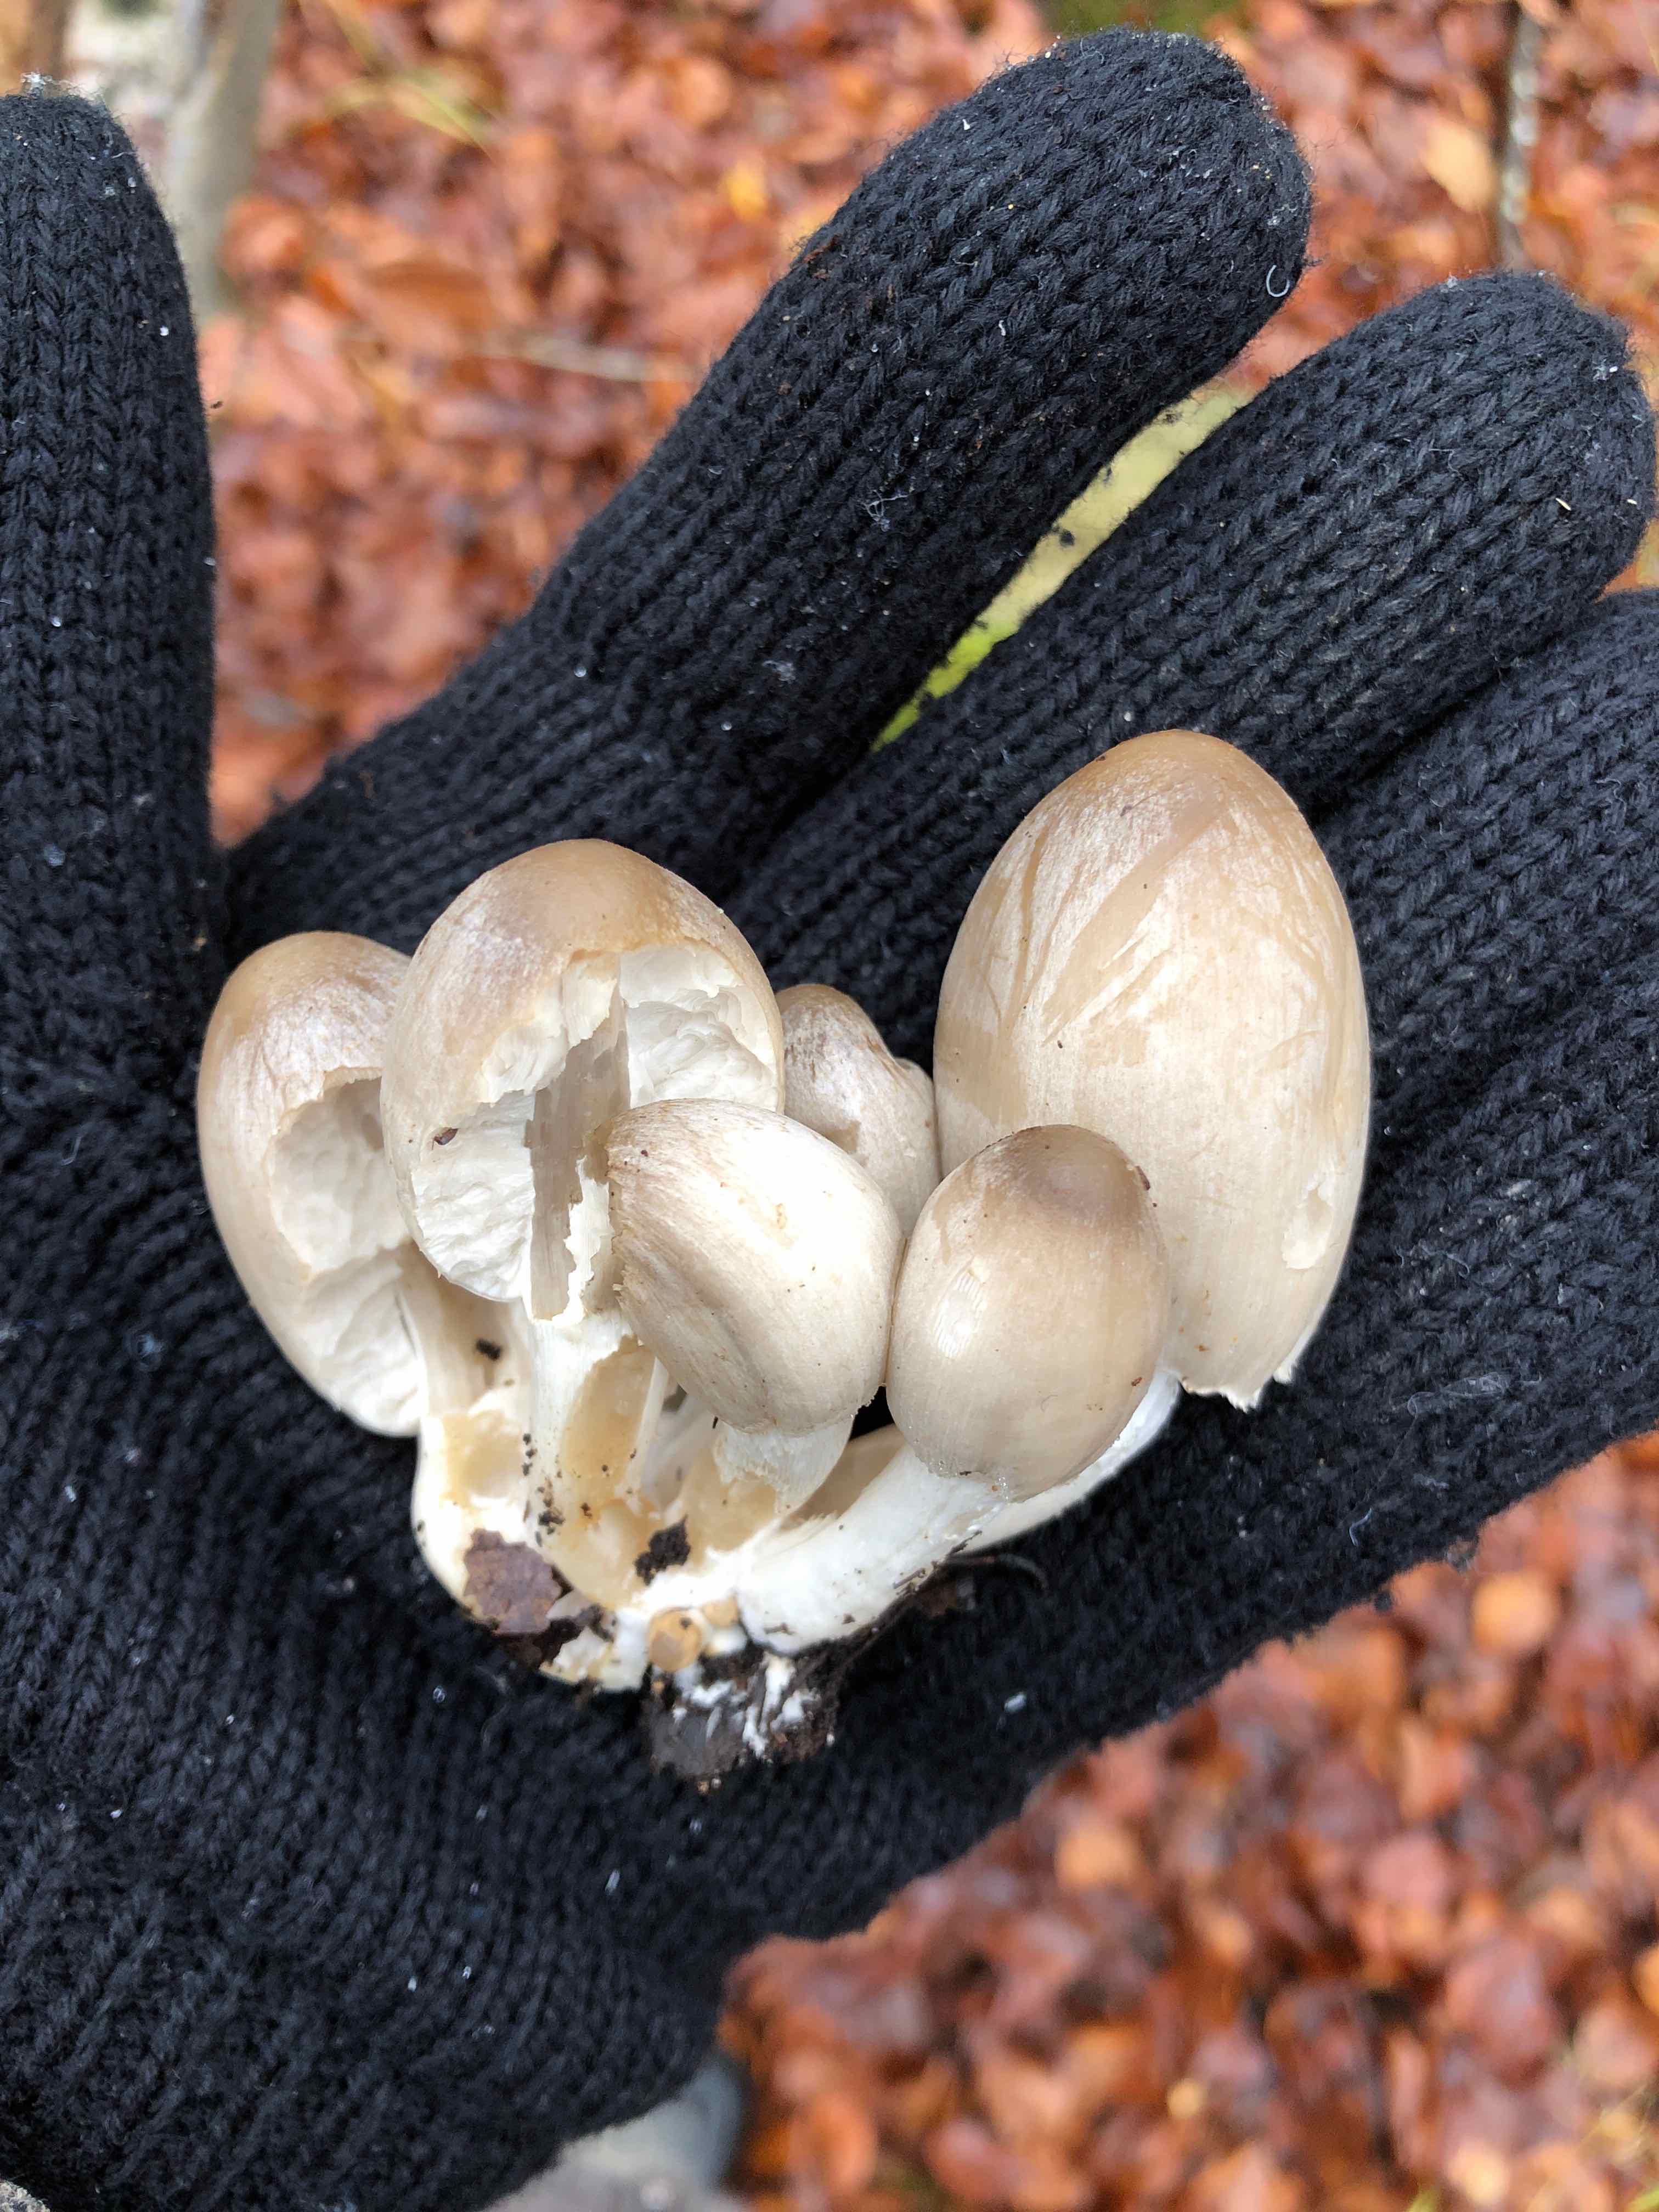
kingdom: Fungi
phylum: Basidiomycota
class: Agaricomycetes
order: Agaricales
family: Psathyrellaceae
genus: Coprinopsis
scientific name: Coprinopsis acuminata
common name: kegle-blækhat
